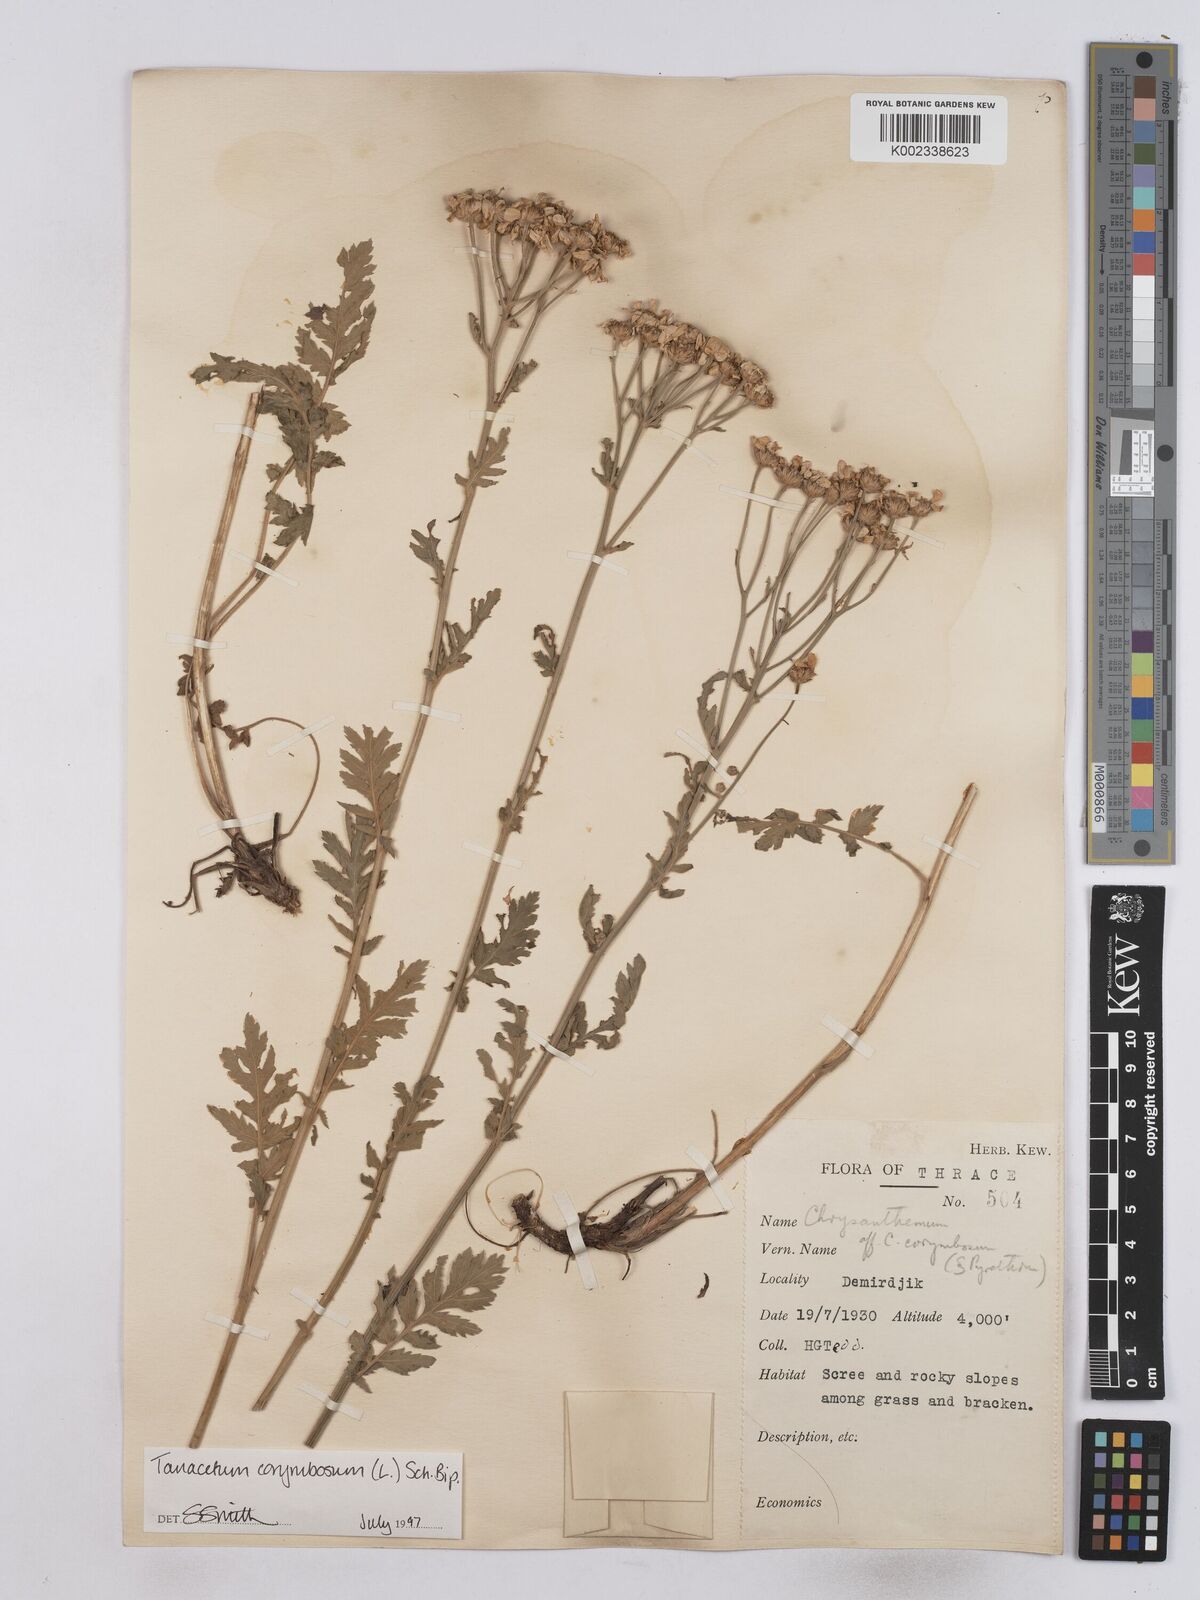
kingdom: Plantae
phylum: Tracheophyta
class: Magnoliopsida
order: Asterales
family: Asteraceae
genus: Tanacetum
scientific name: Tanacetum corymbosum
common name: Scentless feverfew
